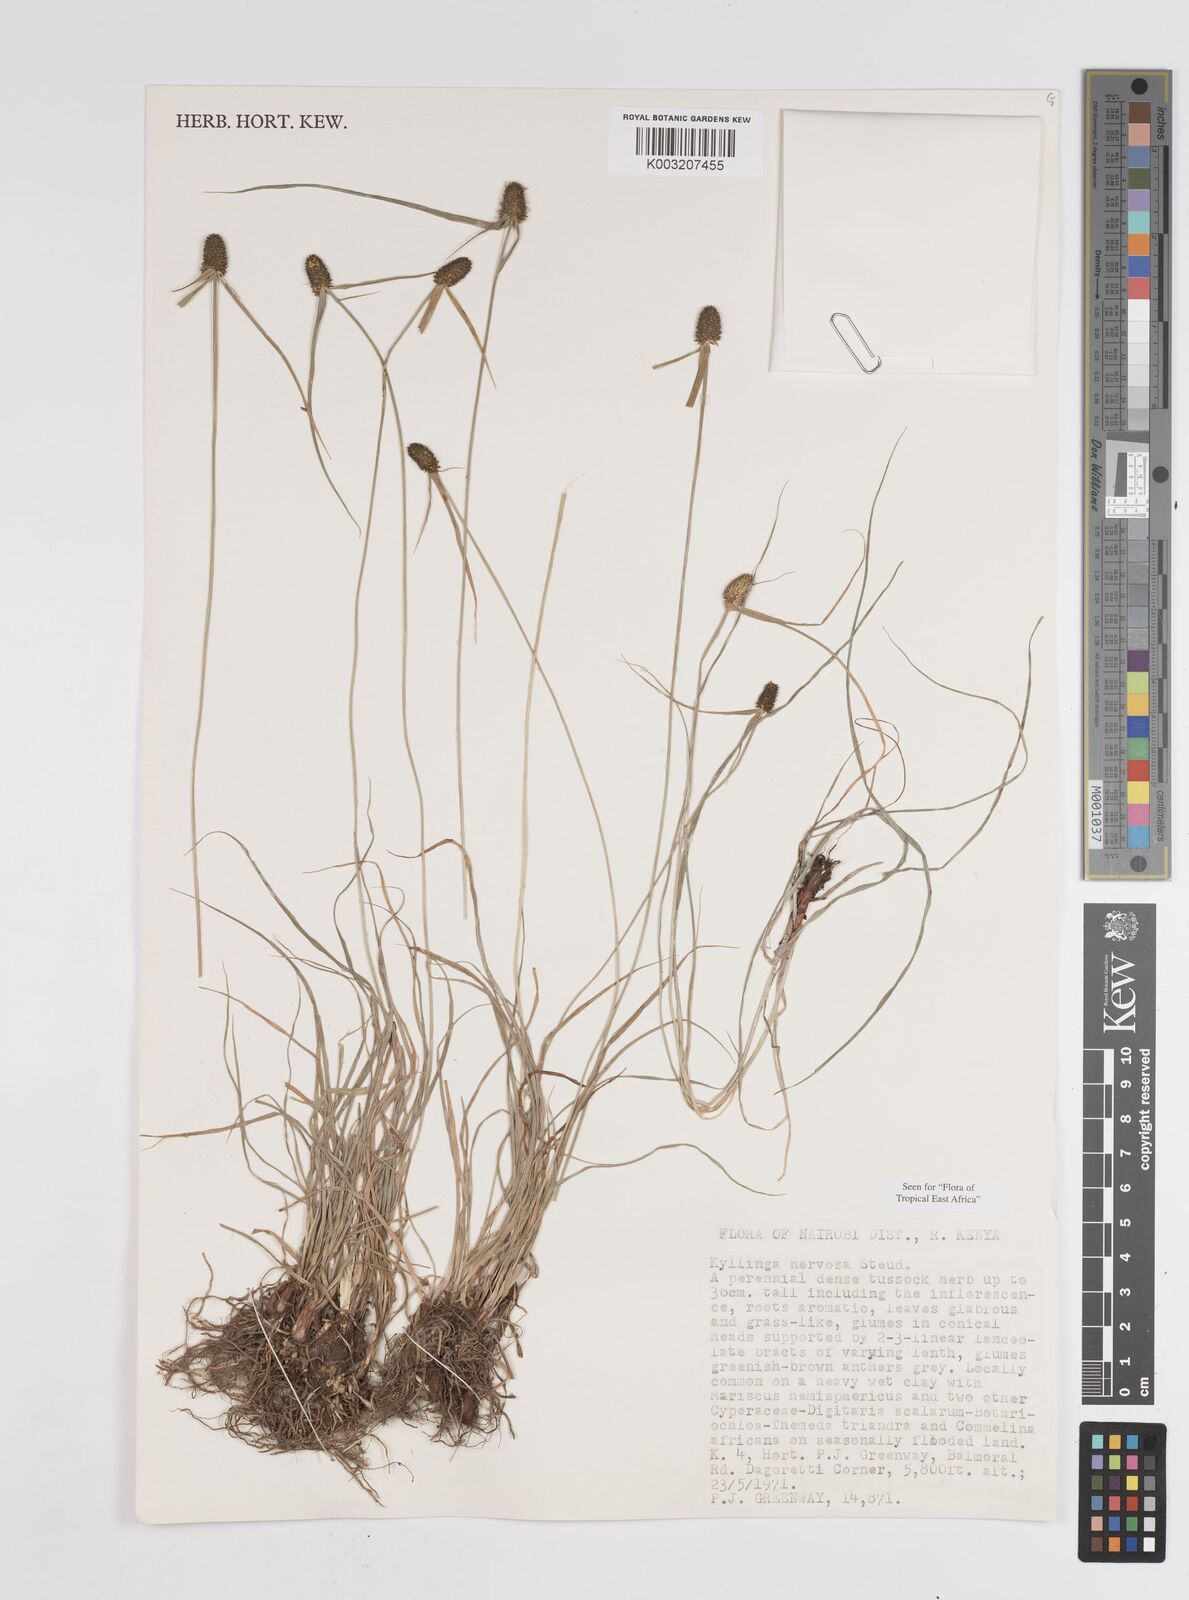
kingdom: Plantae
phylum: Tracheophyta
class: Liliopsida
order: Poales
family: Cyperaceae
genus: Cyperus
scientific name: Cyperus
